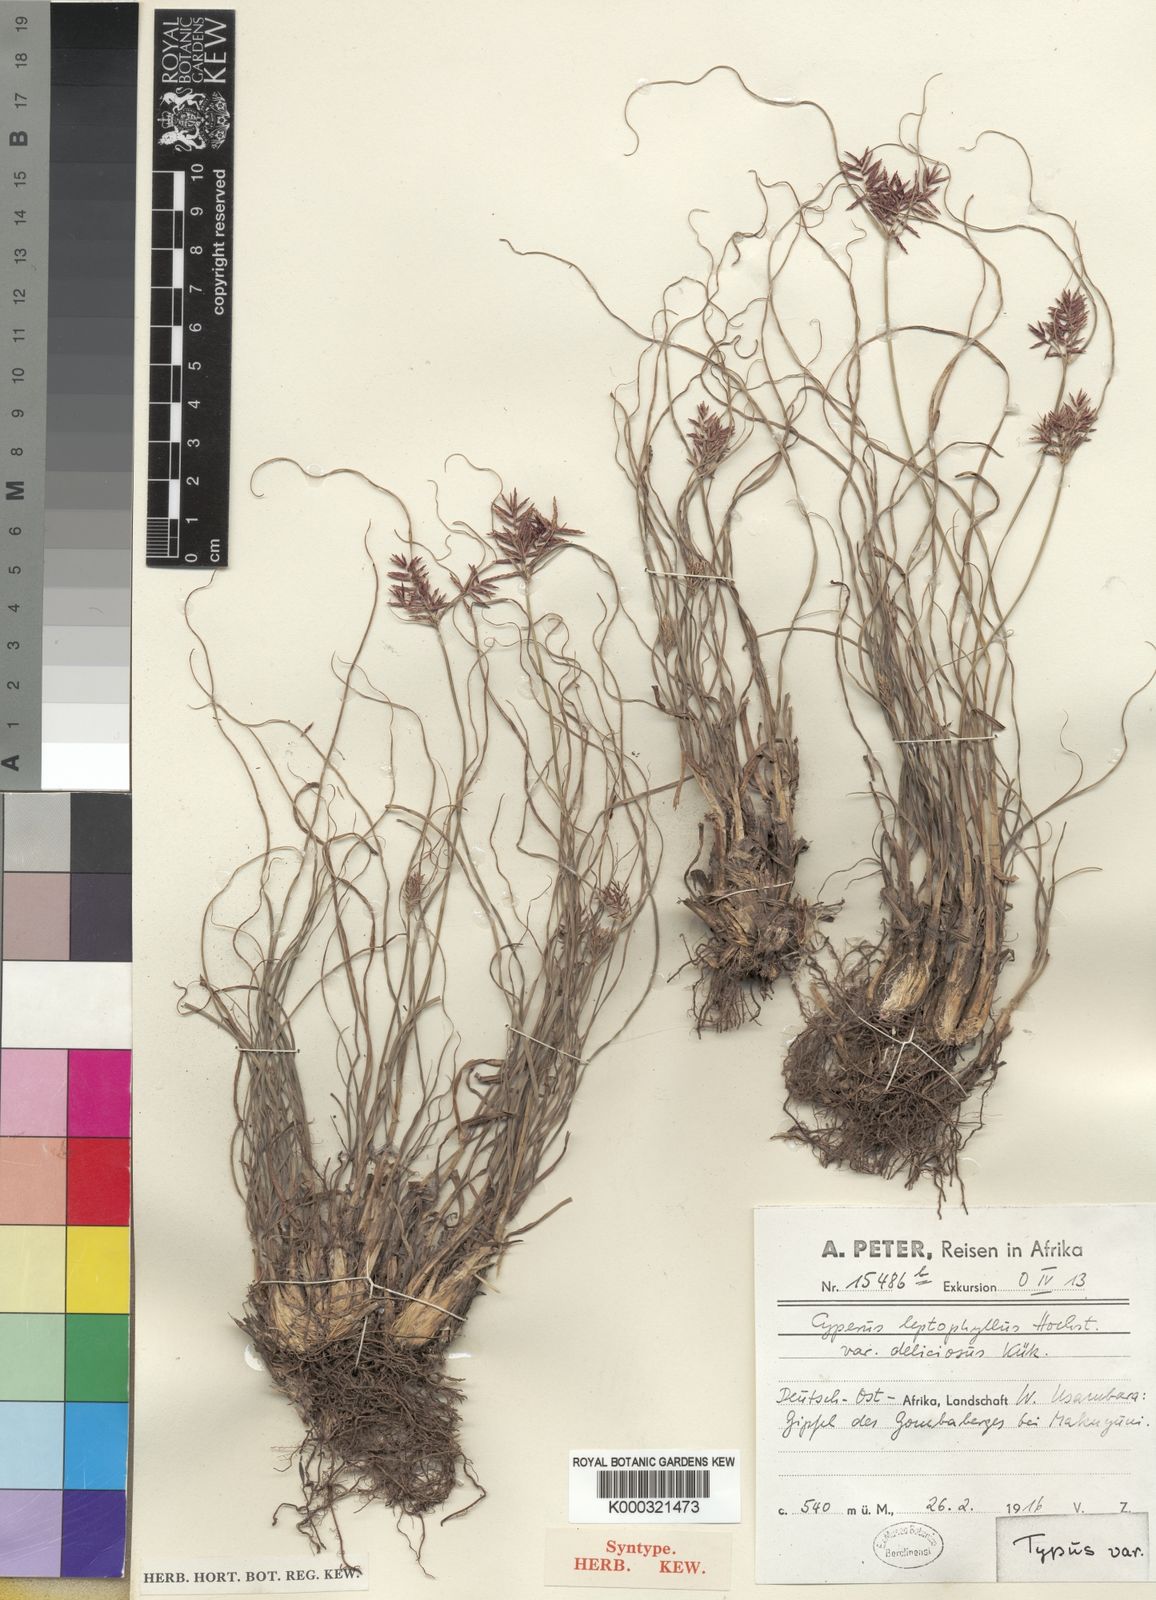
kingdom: Plantae
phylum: Tracheophyta
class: Liliopsida
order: Poales
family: Cyperaceae
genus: Cyperus
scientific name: Cyperus
